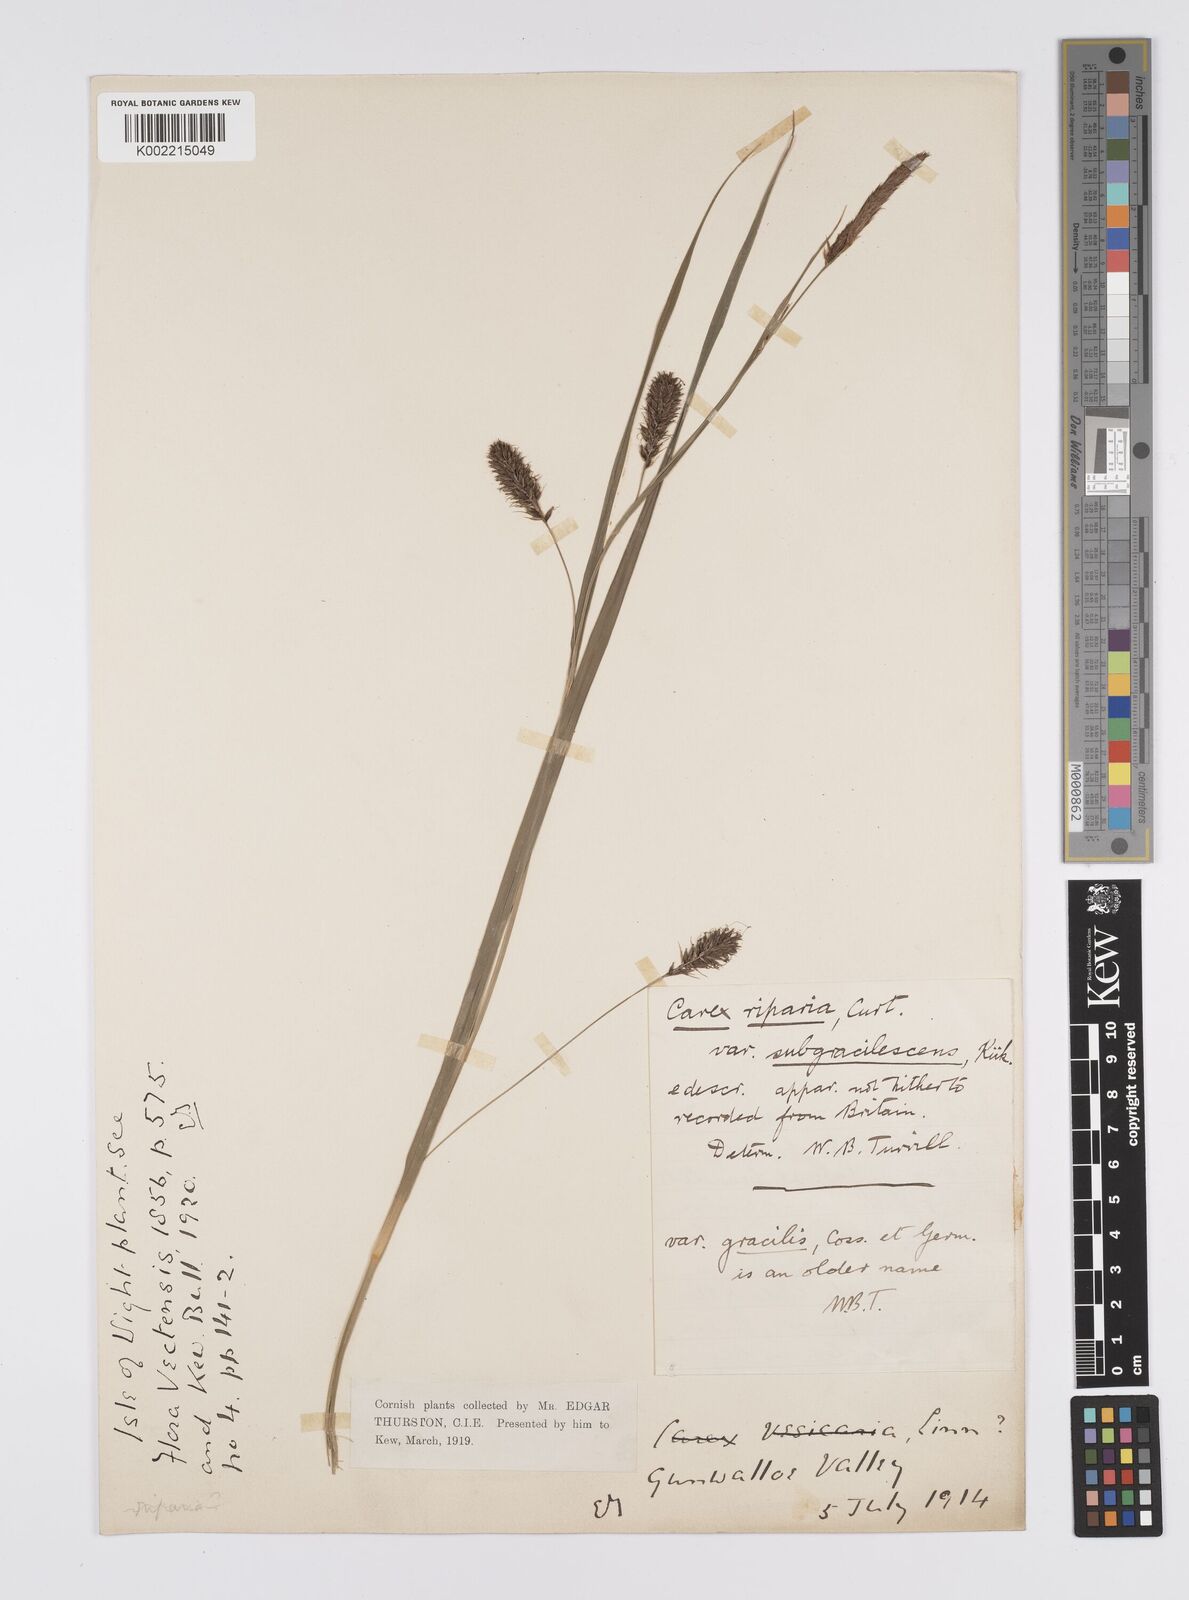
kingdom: Plantae
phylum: Tracheophyta
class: Liliopsida
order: Poales
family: Cyperaceae
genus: Carex
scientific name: Carex riparia
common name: Greater pond-sedge
